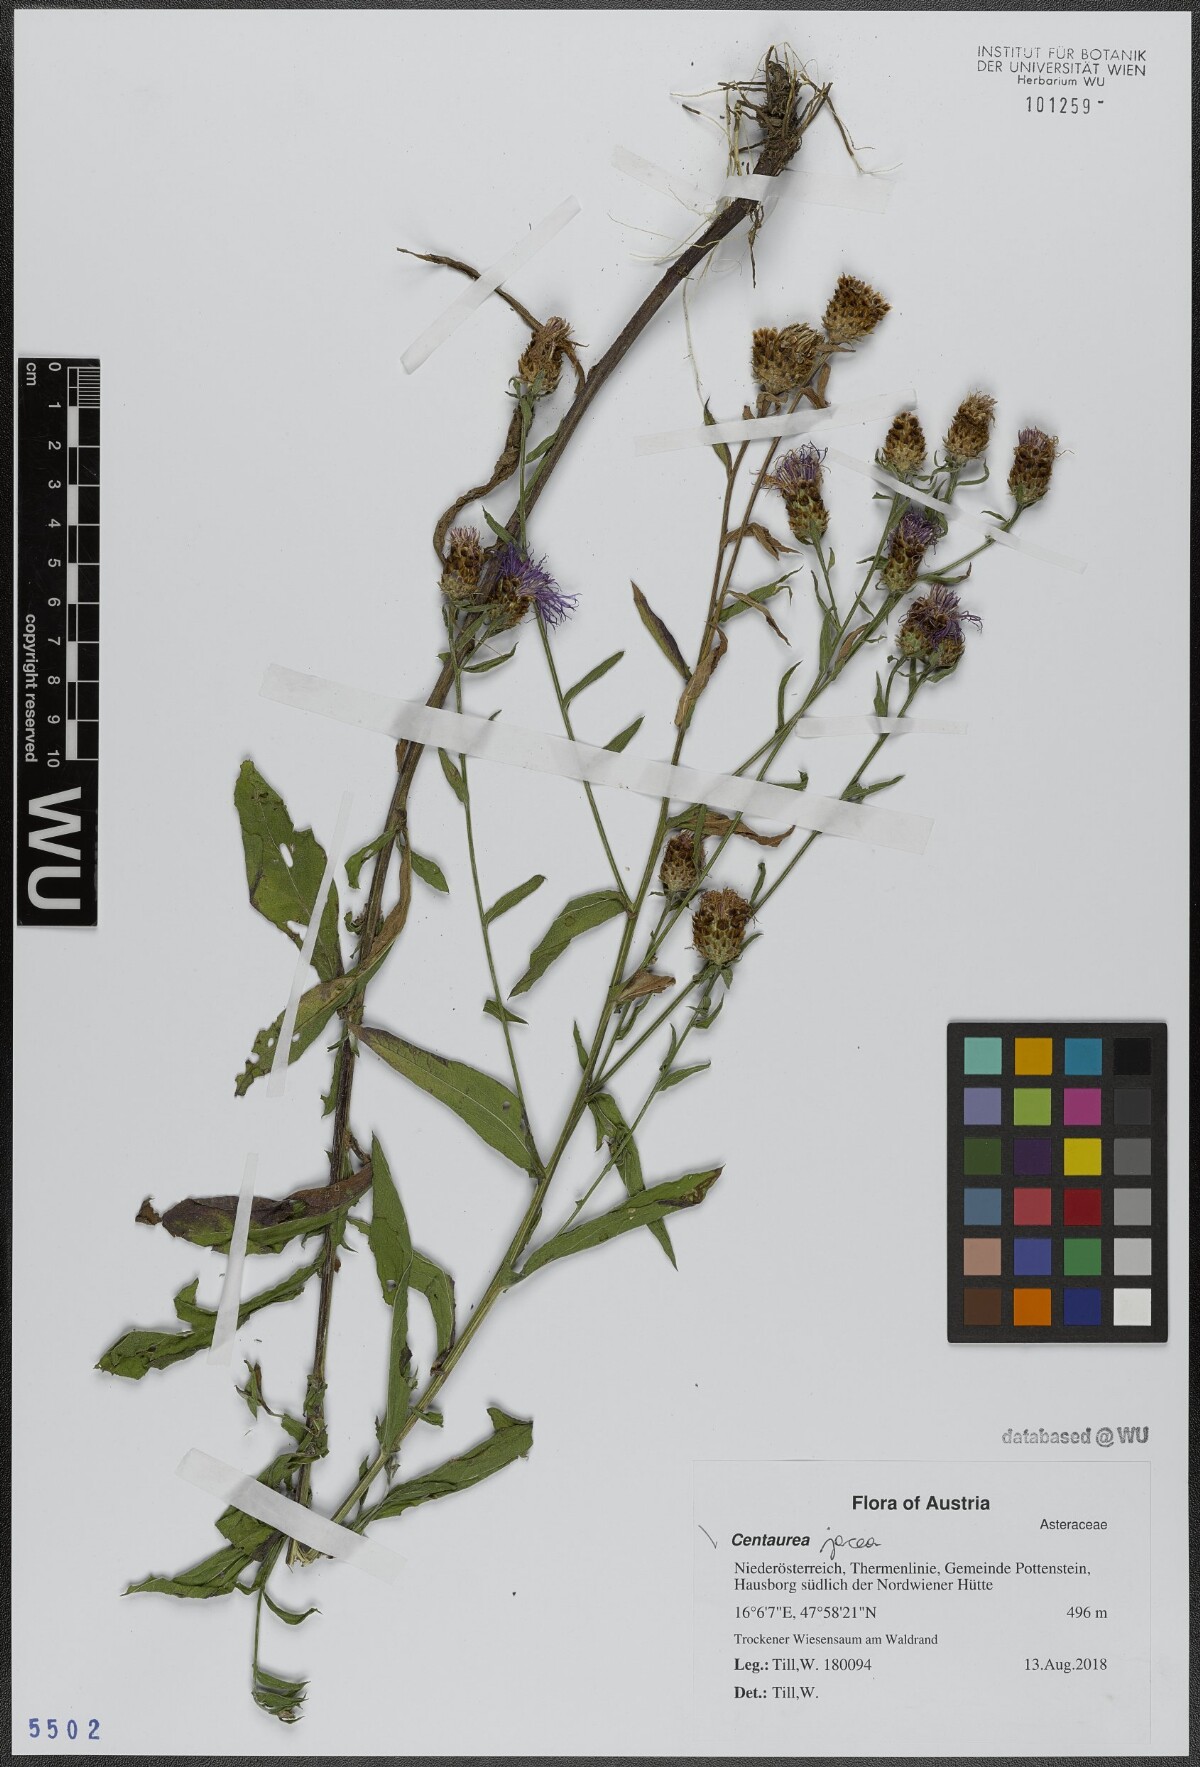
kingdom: Plantae
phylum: Tracheophyta
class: Magnoliopsida
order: Asterales
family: Asteraceae
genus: Centaurea
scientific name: Centaurea jacea
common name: Brown knapweed
